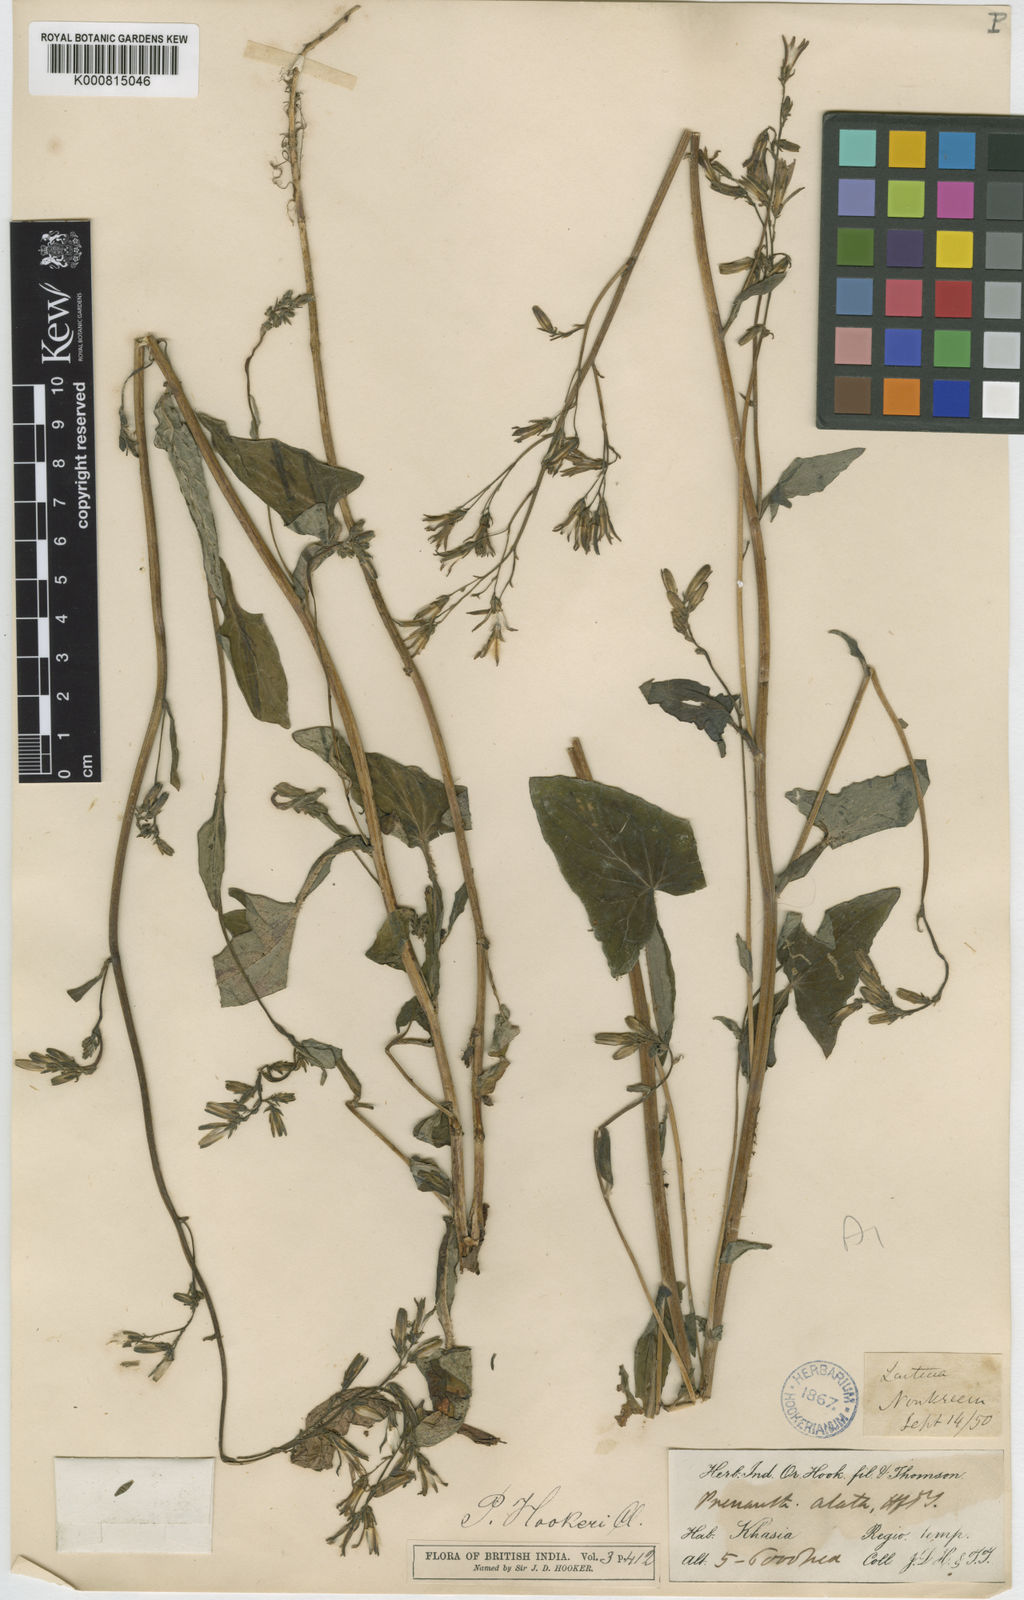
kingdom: Plantae
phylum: Tracheophyta
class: Magnoliopsida
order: Asterales
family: Asteraceae
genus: Prenanthes
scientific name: Prenanthes hookeri
